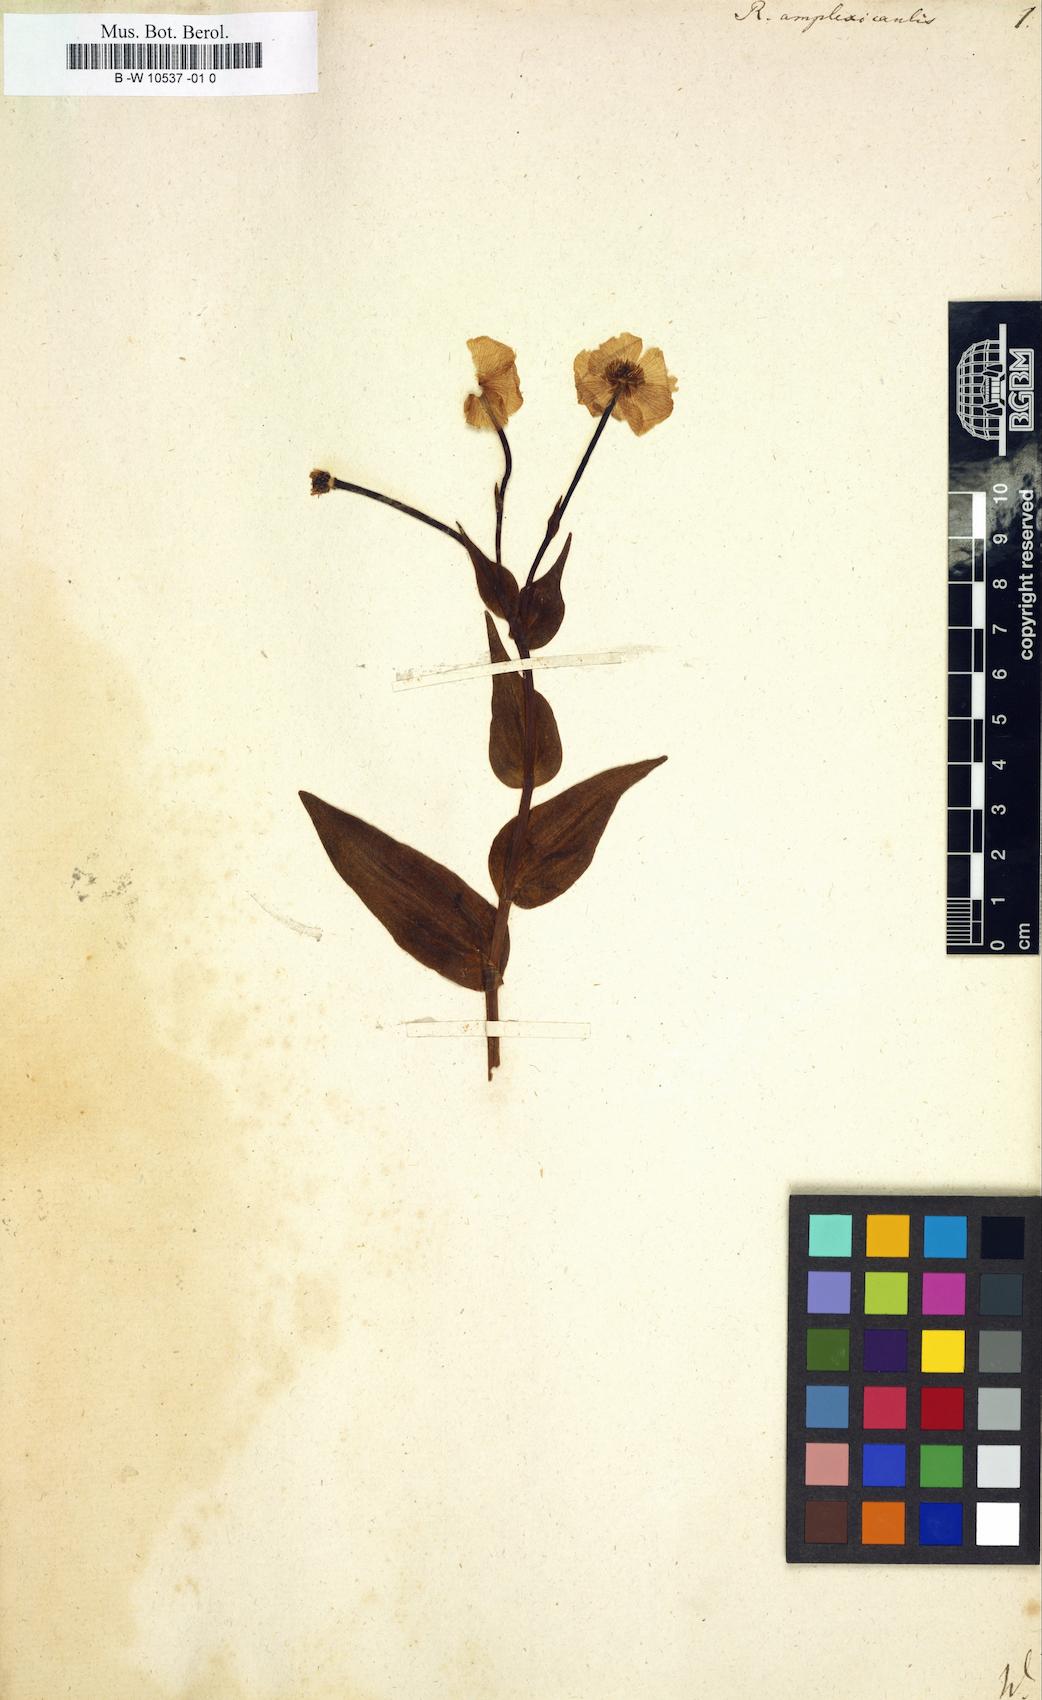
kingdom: Plantae
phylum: Tracheophyta
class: Magnoliopsida
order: Ranunculales
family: Ranunculaceae
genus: Ranunculus
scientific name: Ranunculus amplexicaulis
